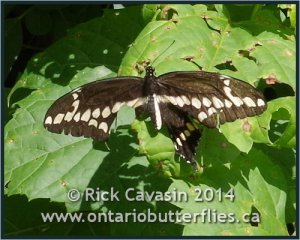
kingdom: Animalia
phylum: Arthropoda
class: Insecta
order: Lepidoptera
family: Papilionidae
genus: Papilio
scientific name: Papilio cresphontes
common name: Eastern Giant Swallowtail
